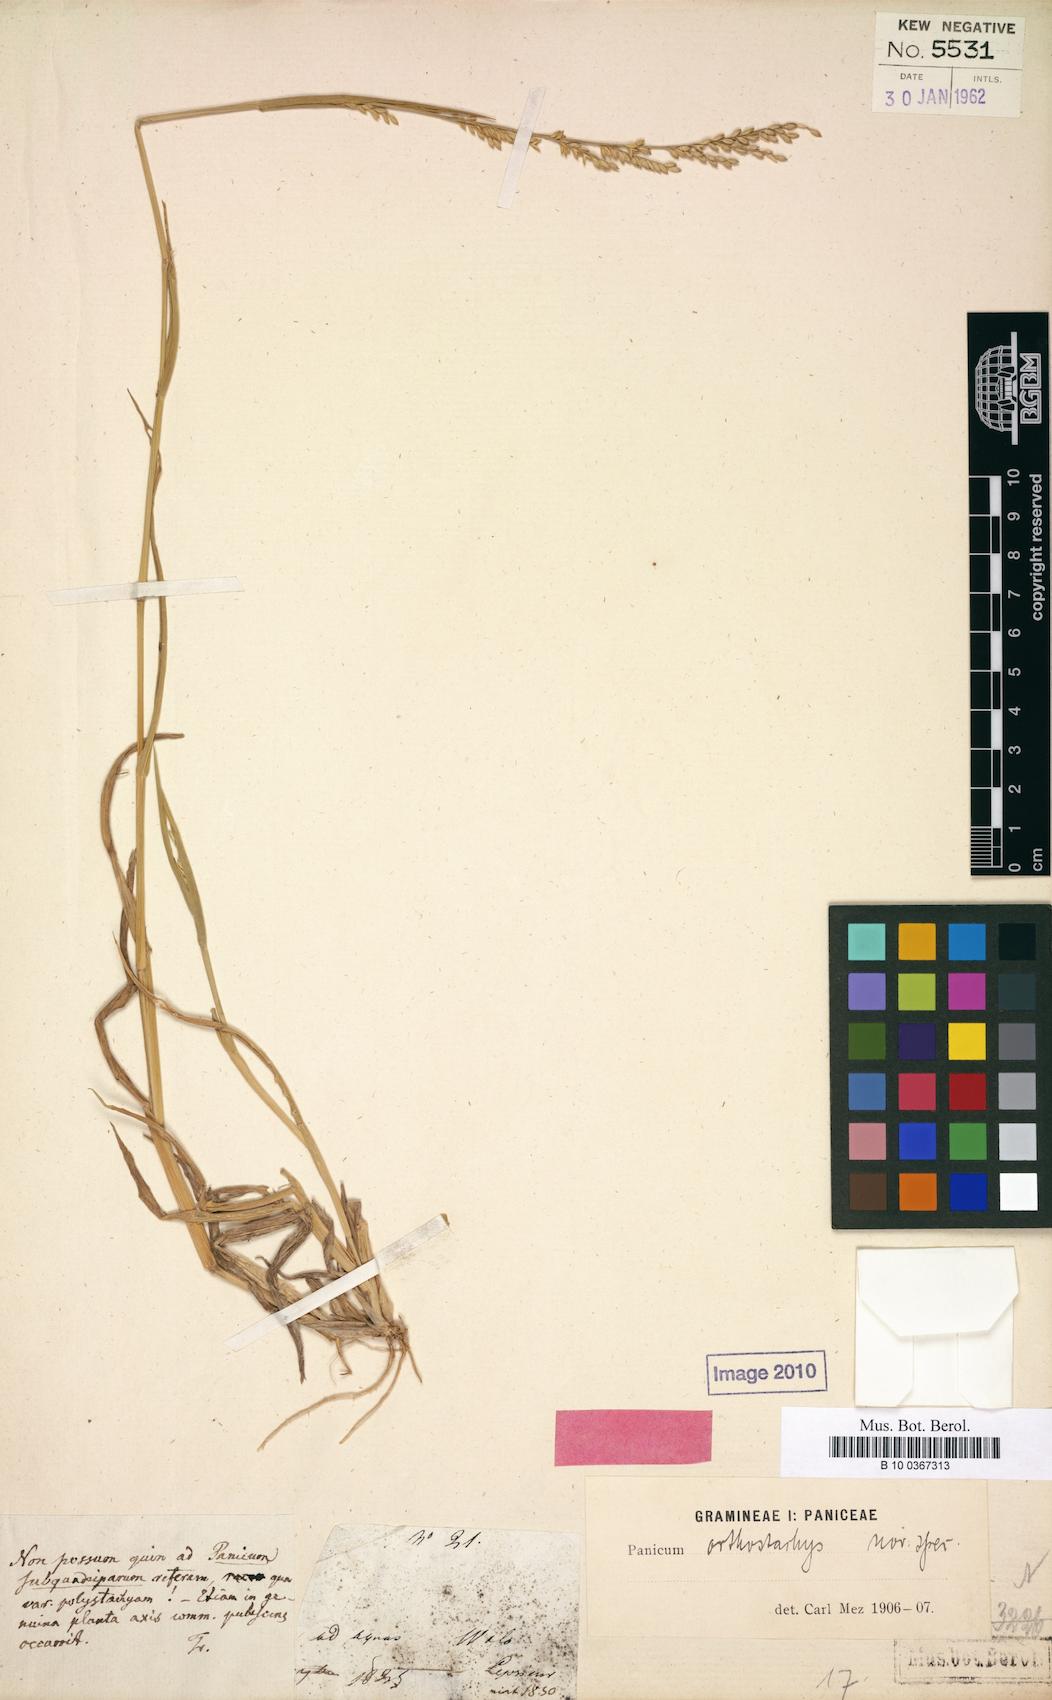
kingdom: Plantae
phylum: Tracheophyta
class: Liliopsida
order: Poales
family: Poaceae
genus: Urochloa
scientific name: Urochloa orthostachys
